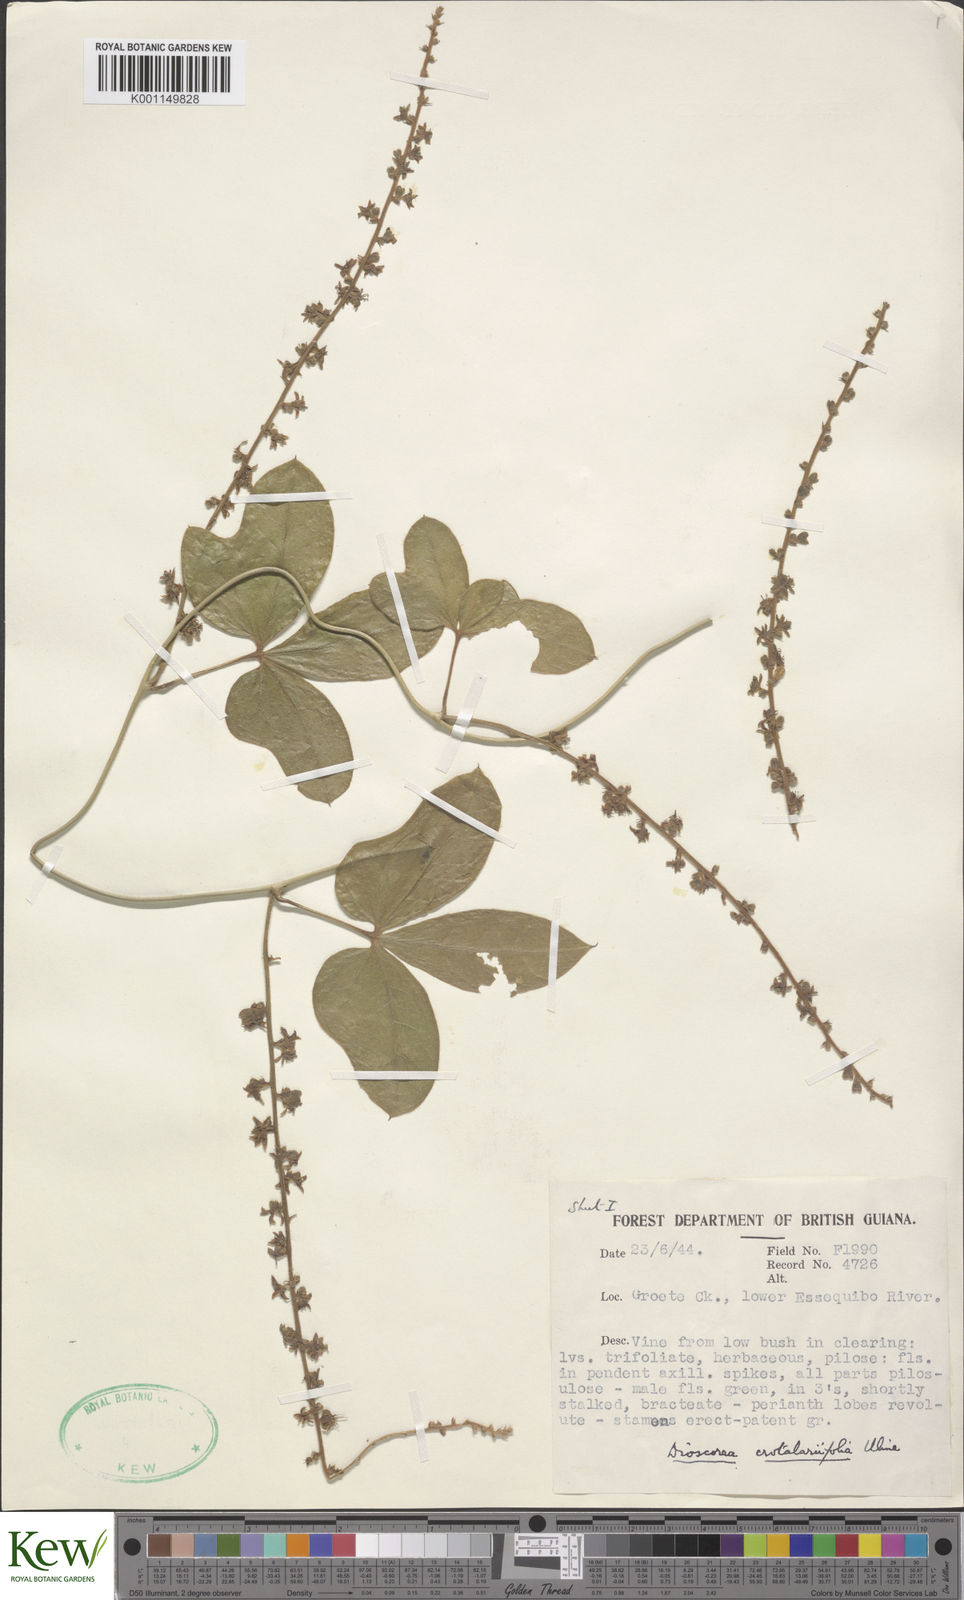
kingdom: Plantae
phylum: Tracheophyta
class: Liliopsida
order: Dioscoreales
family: Dioscoreaceae
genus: Dioscorea
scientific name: Dioscorea crotalariifolia
